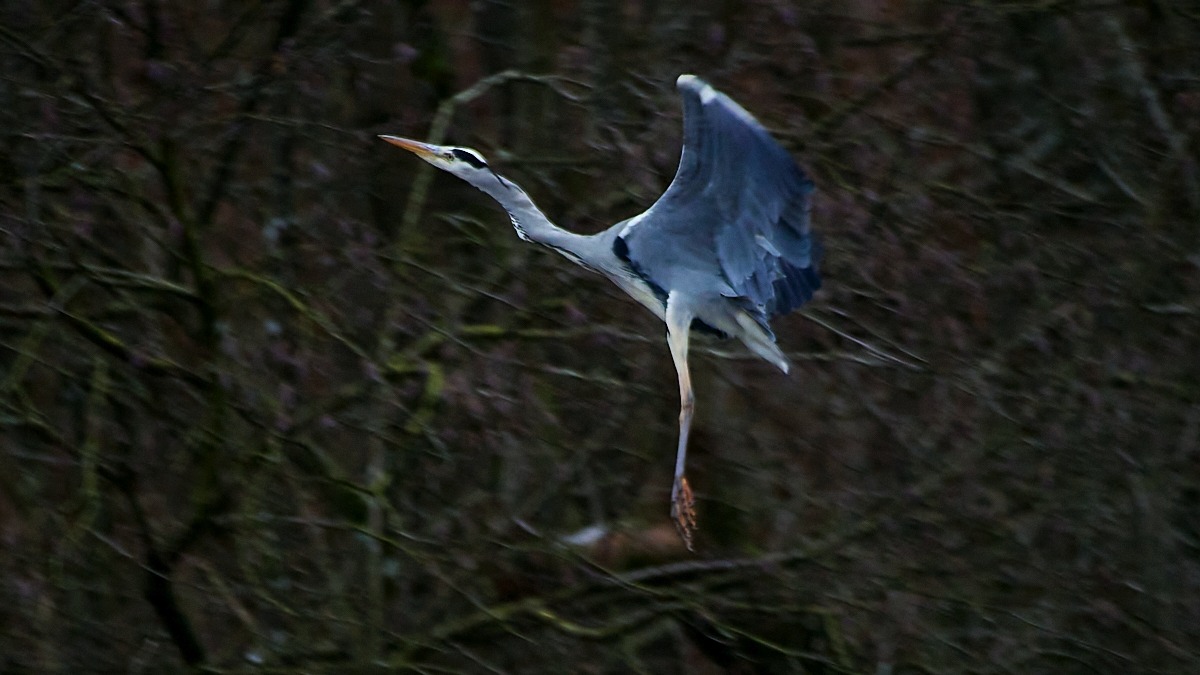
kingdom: Animalia
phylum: Chordata
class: Aves
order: Pelecaniformes
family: Ardeidae
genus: Ardea
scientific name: Ardea cinerea
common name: Fiskehejre
